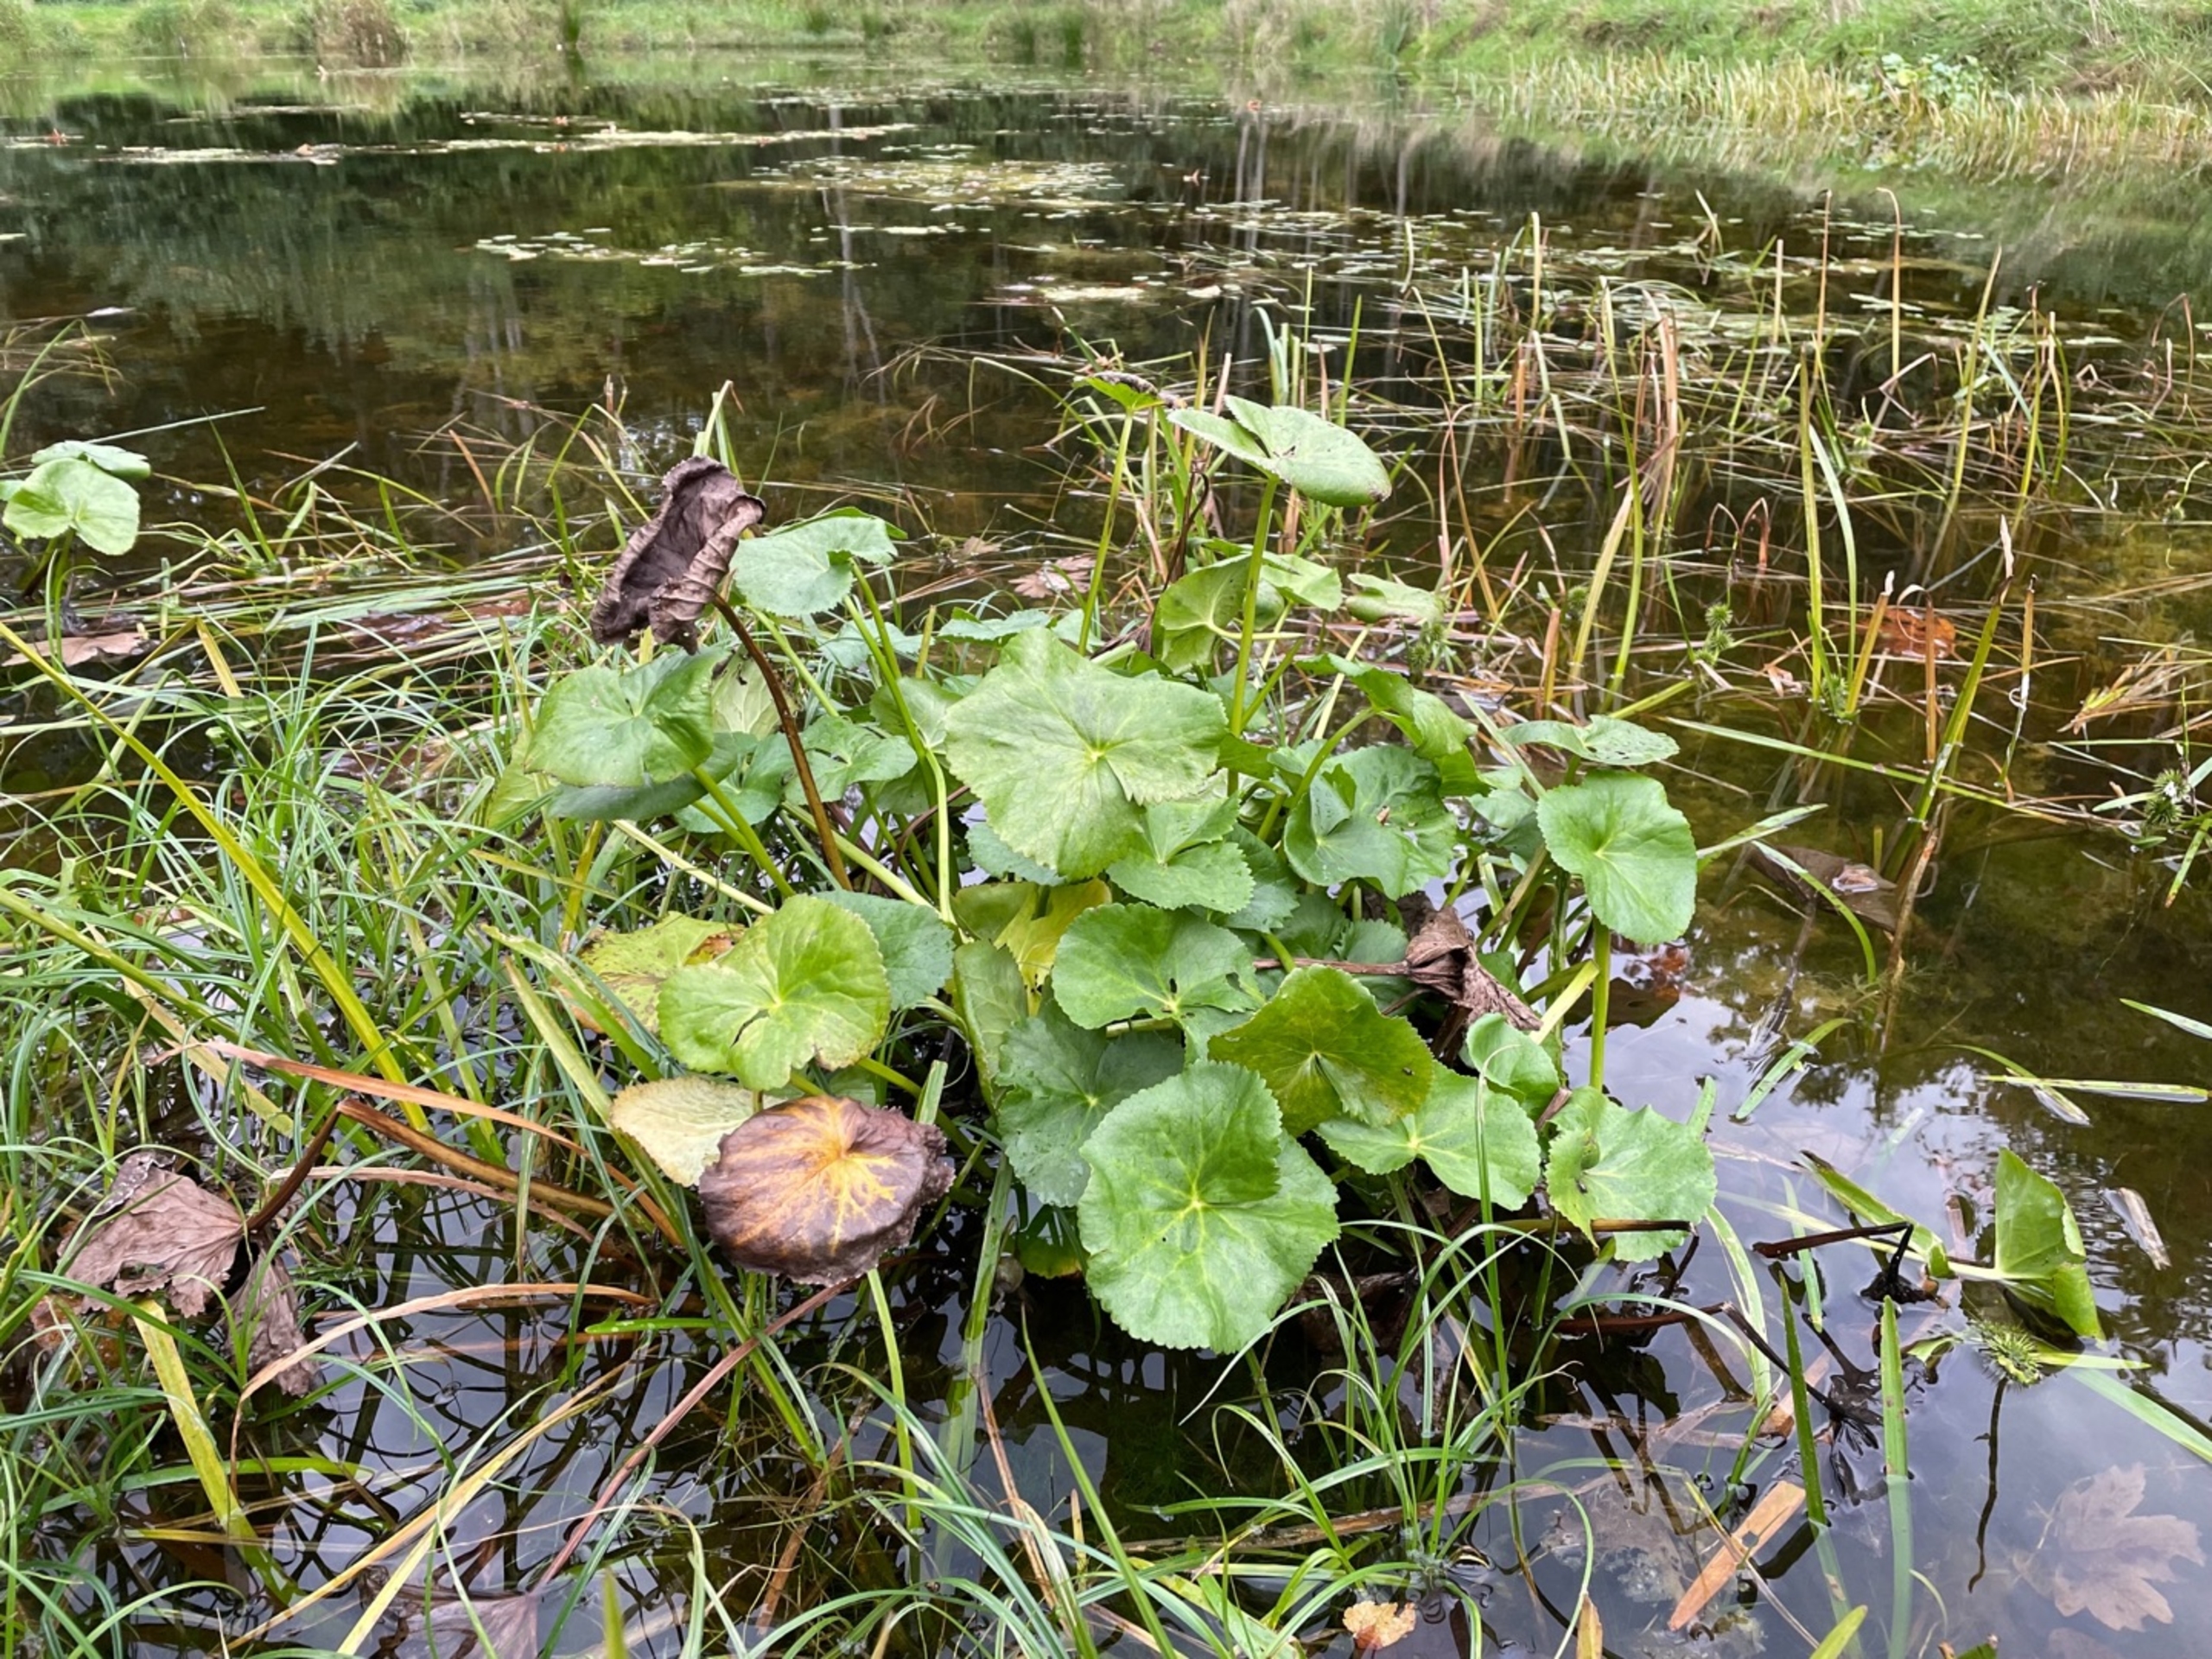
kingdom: Plantae
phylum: Tracheophyta
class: Magnoliopsida
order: Ranunculales
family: Ranunculaceae
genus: Caltha
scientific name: Caltha palustris
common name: Eng-kabbeleje
